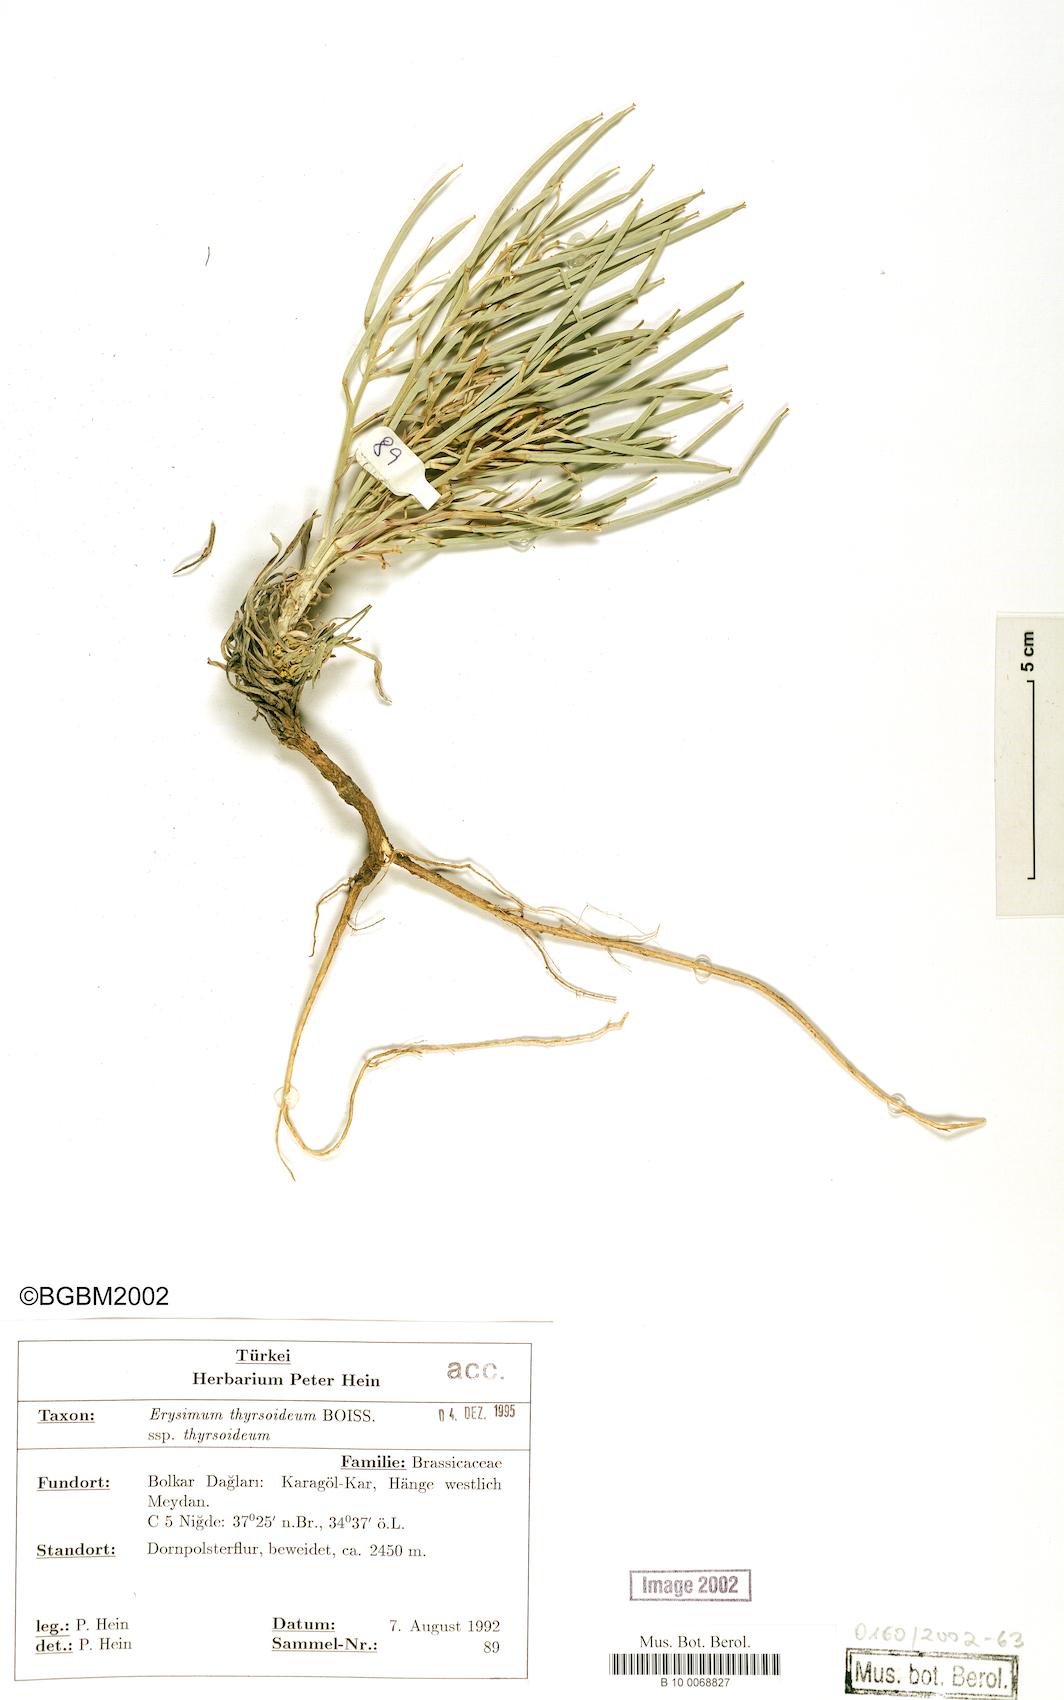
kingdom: Plantae
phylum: Tracheophyta
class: Magnoliopsida
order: Brassicales
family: Brassicaceae
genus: Erysimum
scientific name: Erysimum pycnophyllum
